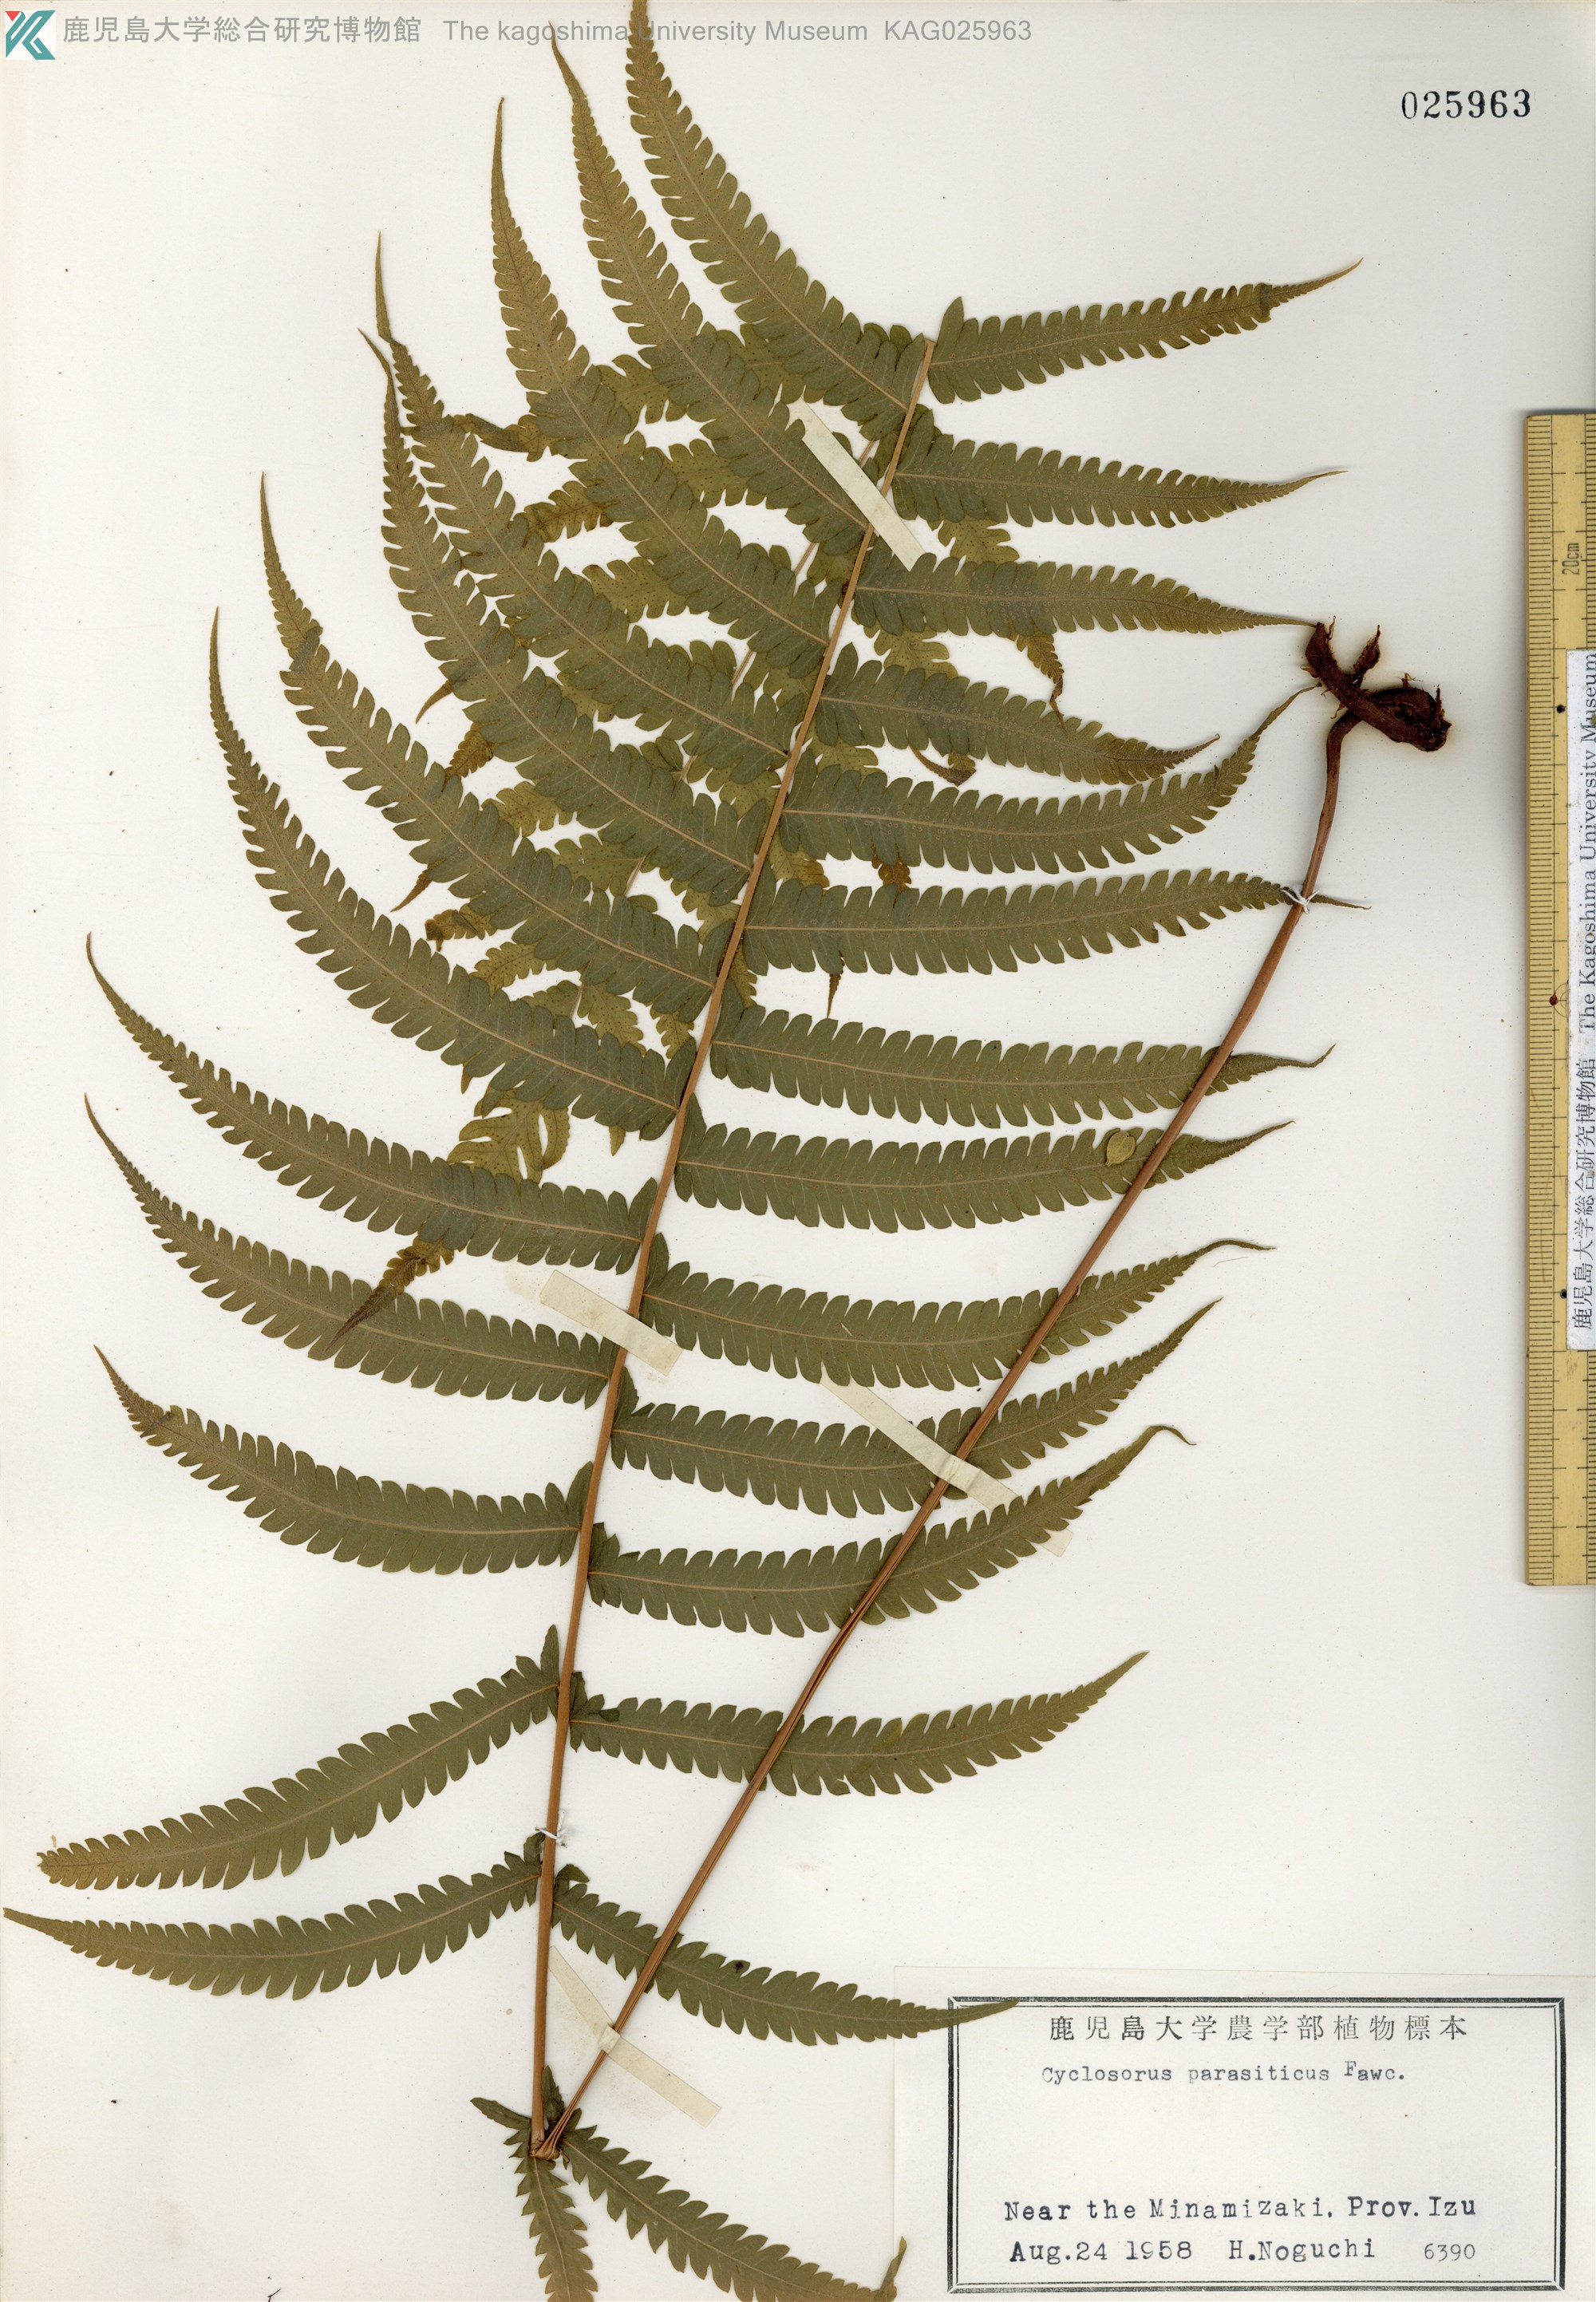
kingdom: Plantae
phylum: Tracheophyta
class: Polypodiopsida
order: Polypodiales
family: Thelypteridaceae
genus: Christella
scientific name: Christella parasitica
